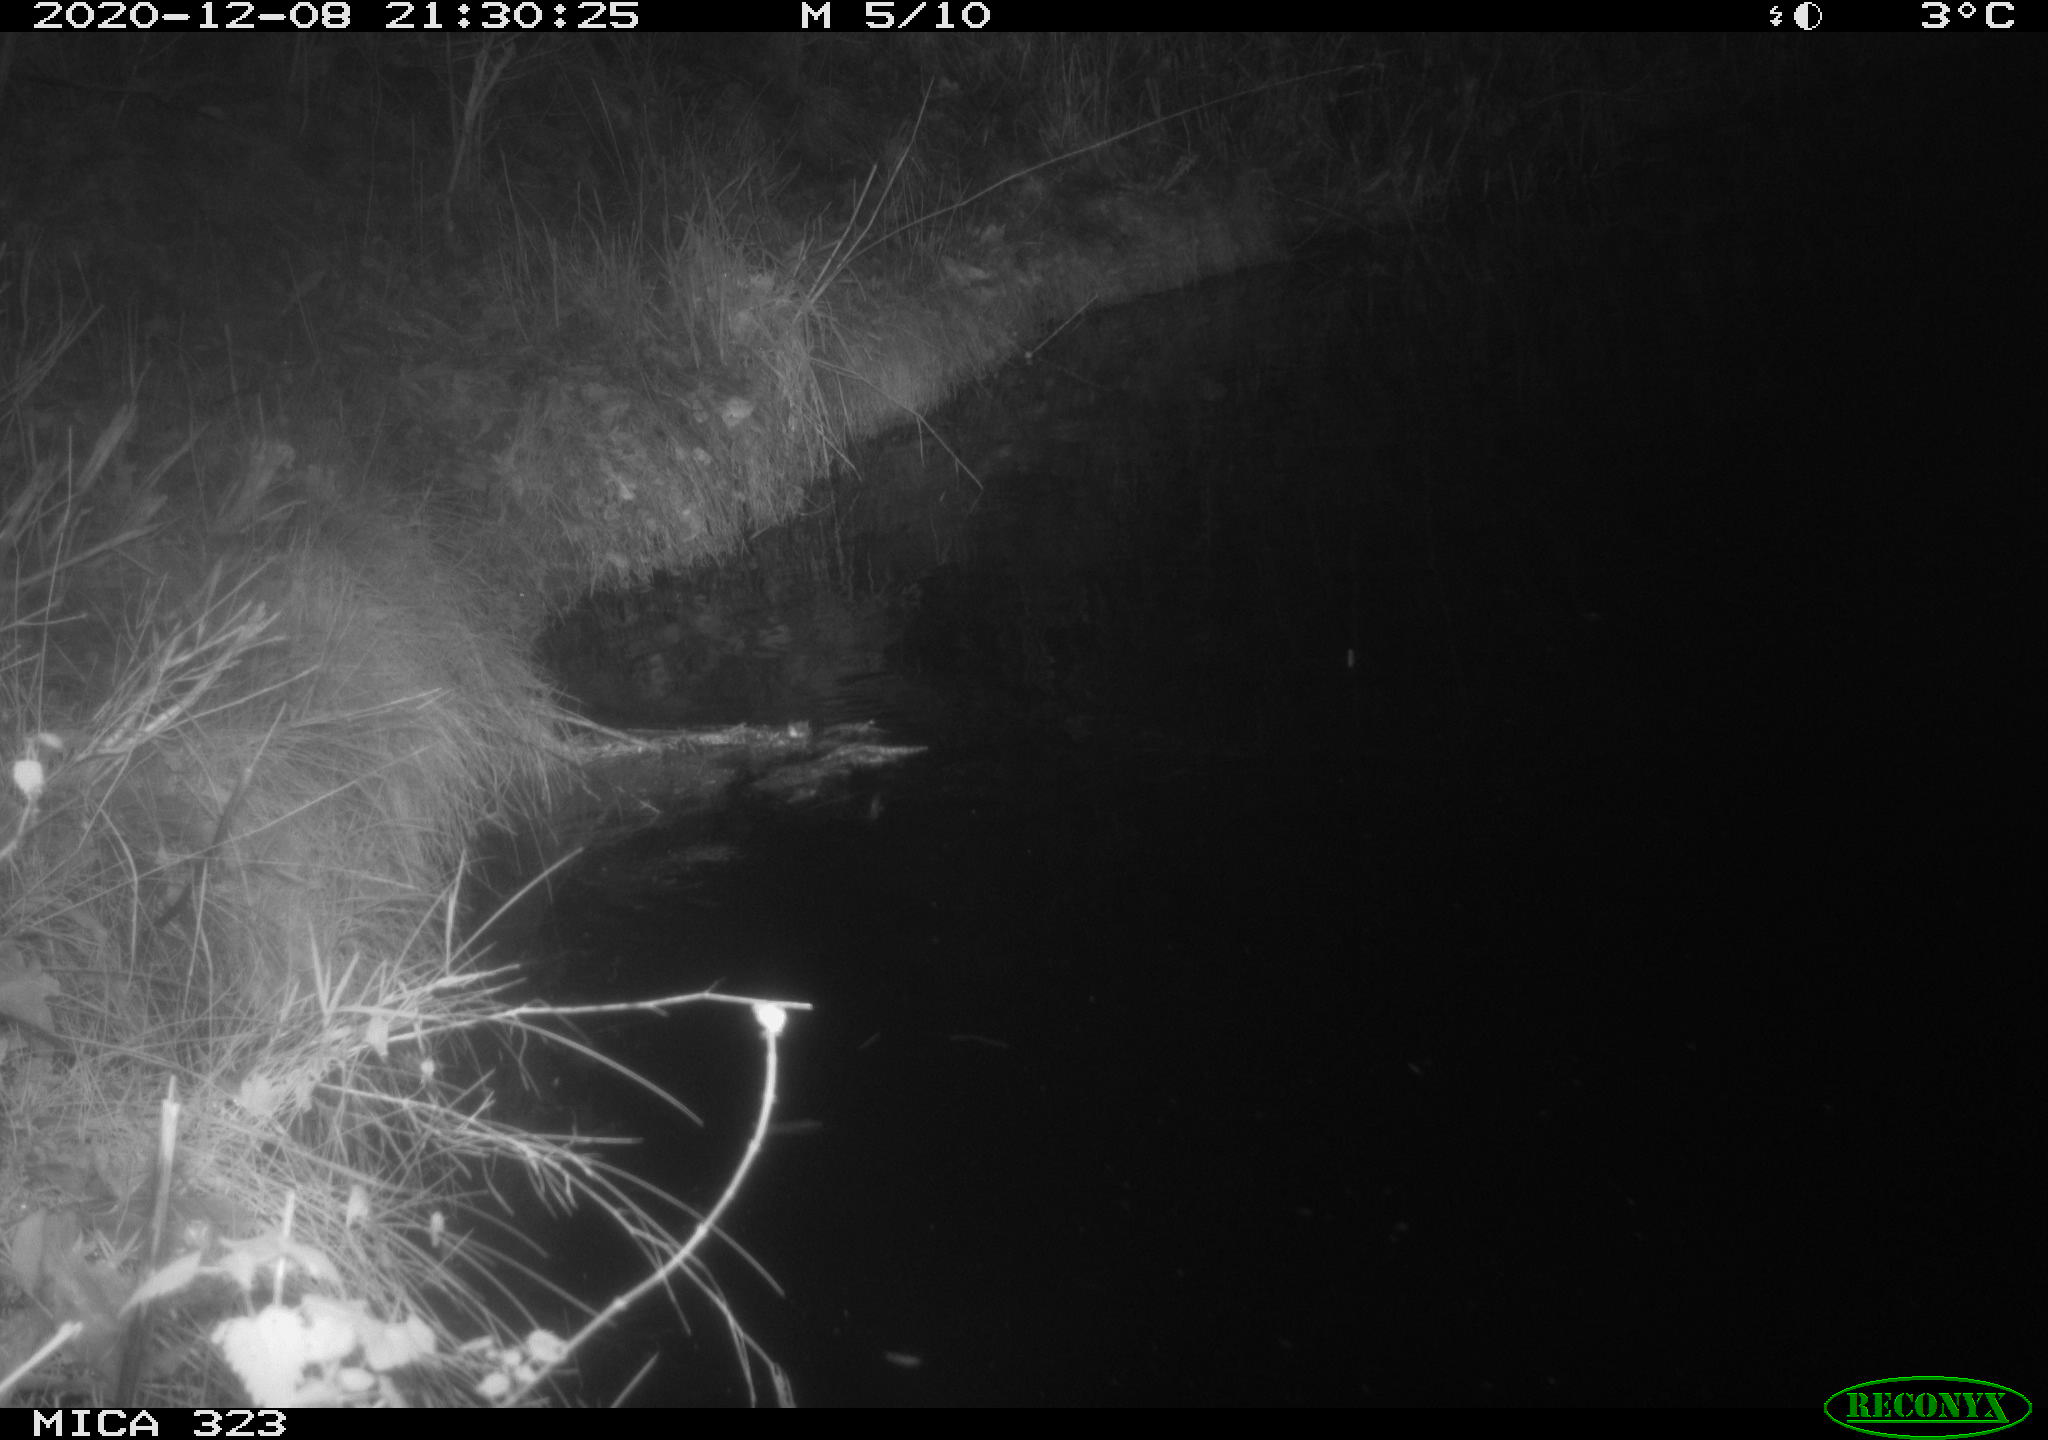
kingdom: Animalia
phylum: Chordata
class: Mammalia
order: Rodentia
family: Myocastoridae
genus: Myocastor
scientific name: Myocastor coypus
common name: Coypu
